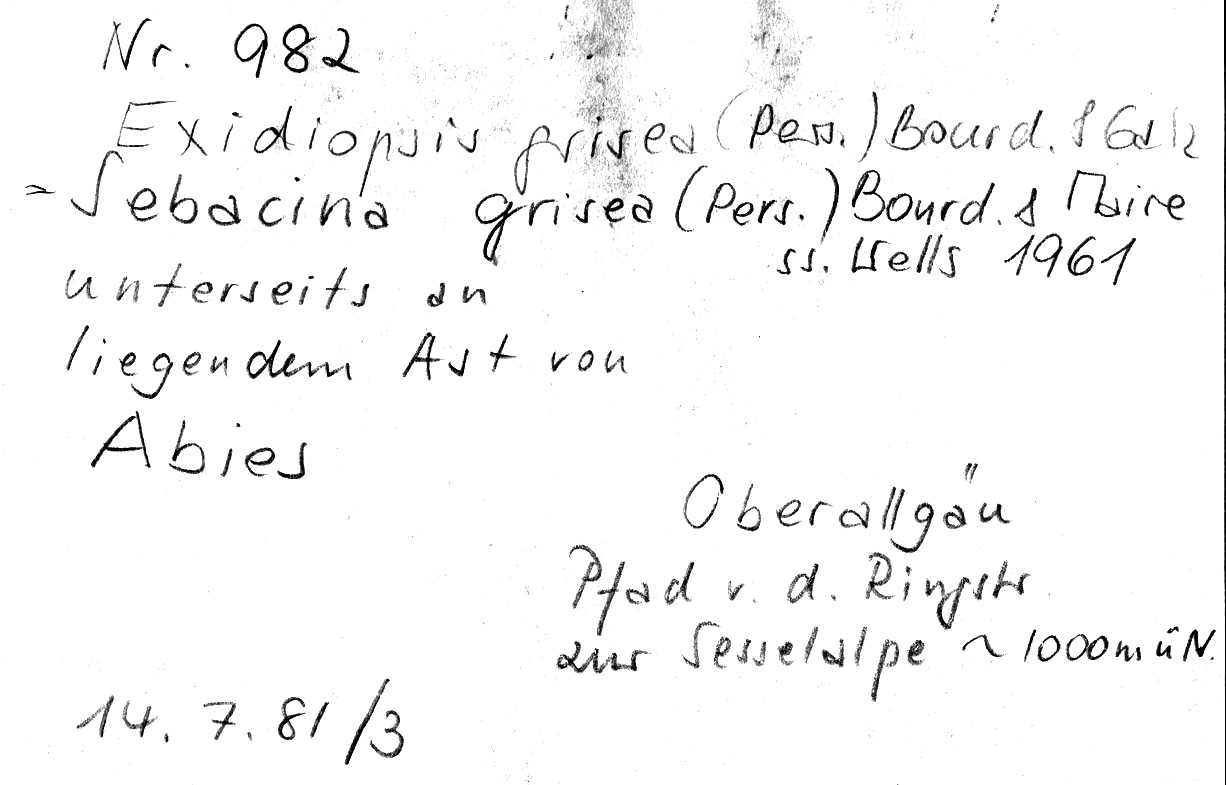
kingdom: Plantae
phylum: Tracheophyta
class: Pinopsida
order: Pinales
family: Pinaceae
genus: Abies
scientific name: Abies
